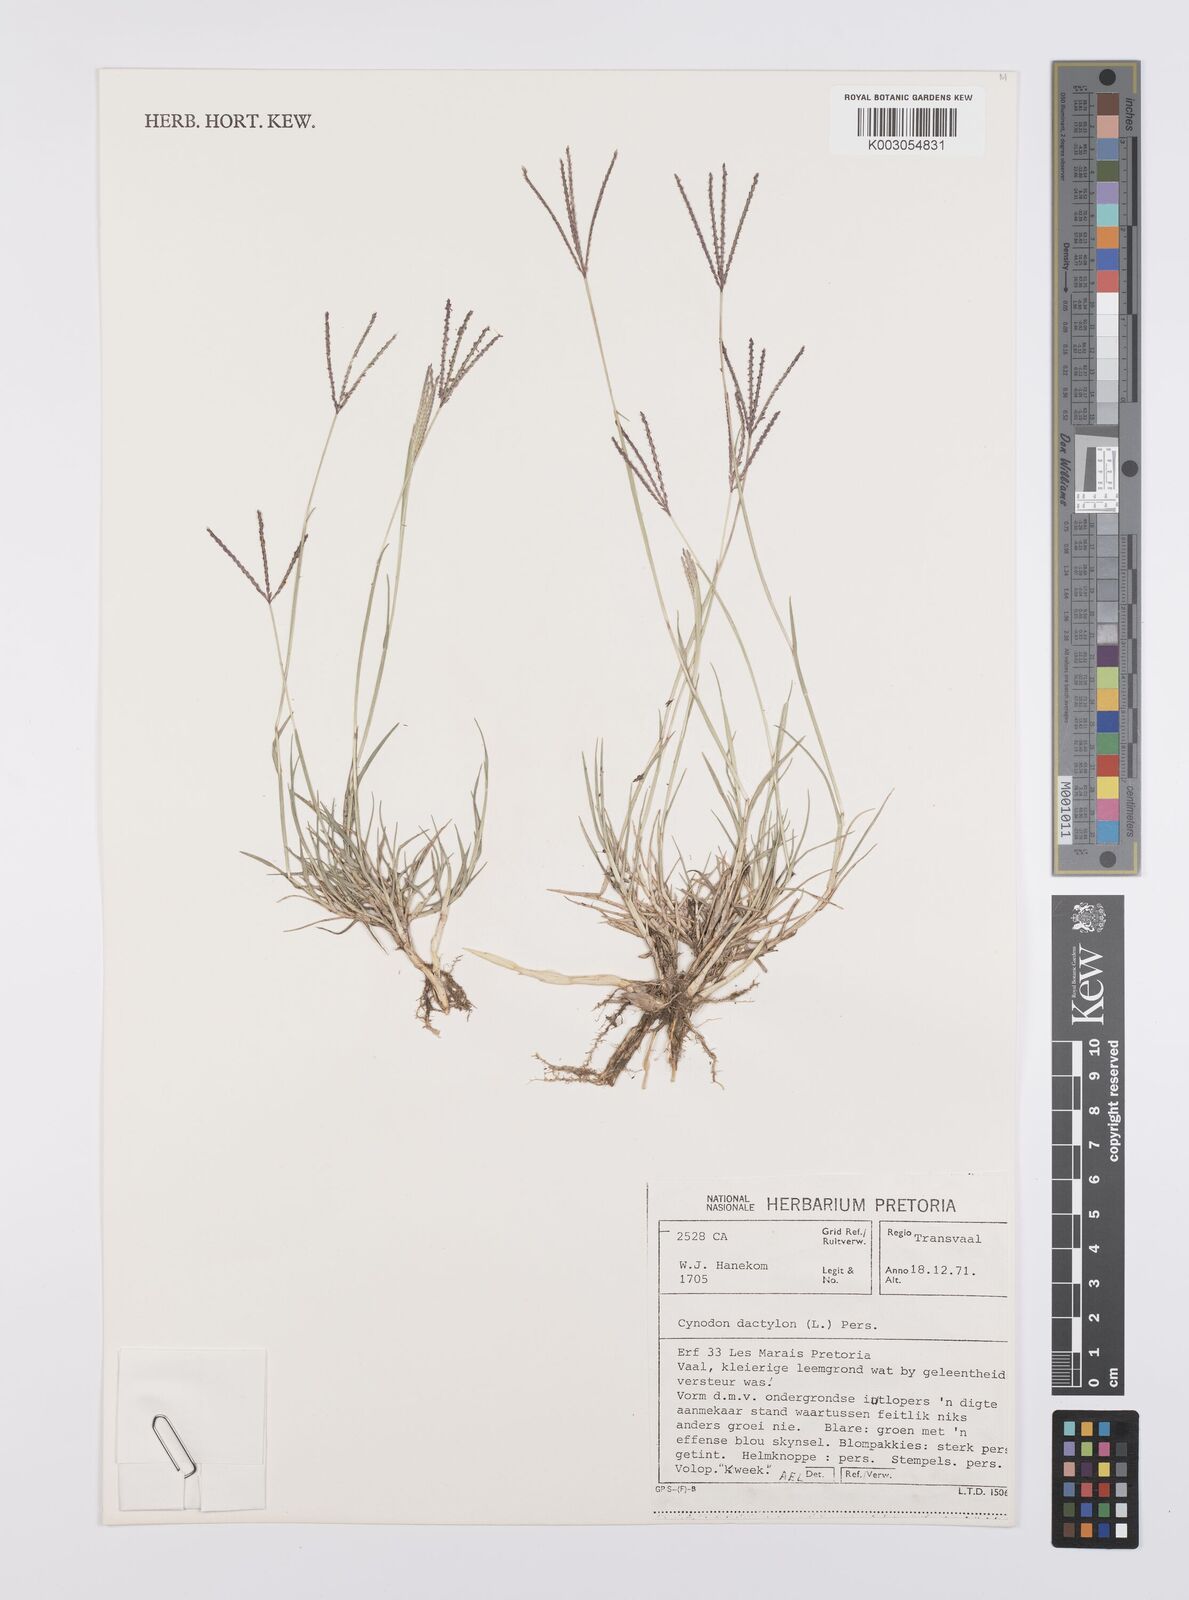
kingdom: Plantae
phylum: Tracheophyta
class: Liliopsida
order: Poales
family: Poaceae
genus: Cynodon
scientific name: Cynodon dactylon
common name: Bermuda grass
